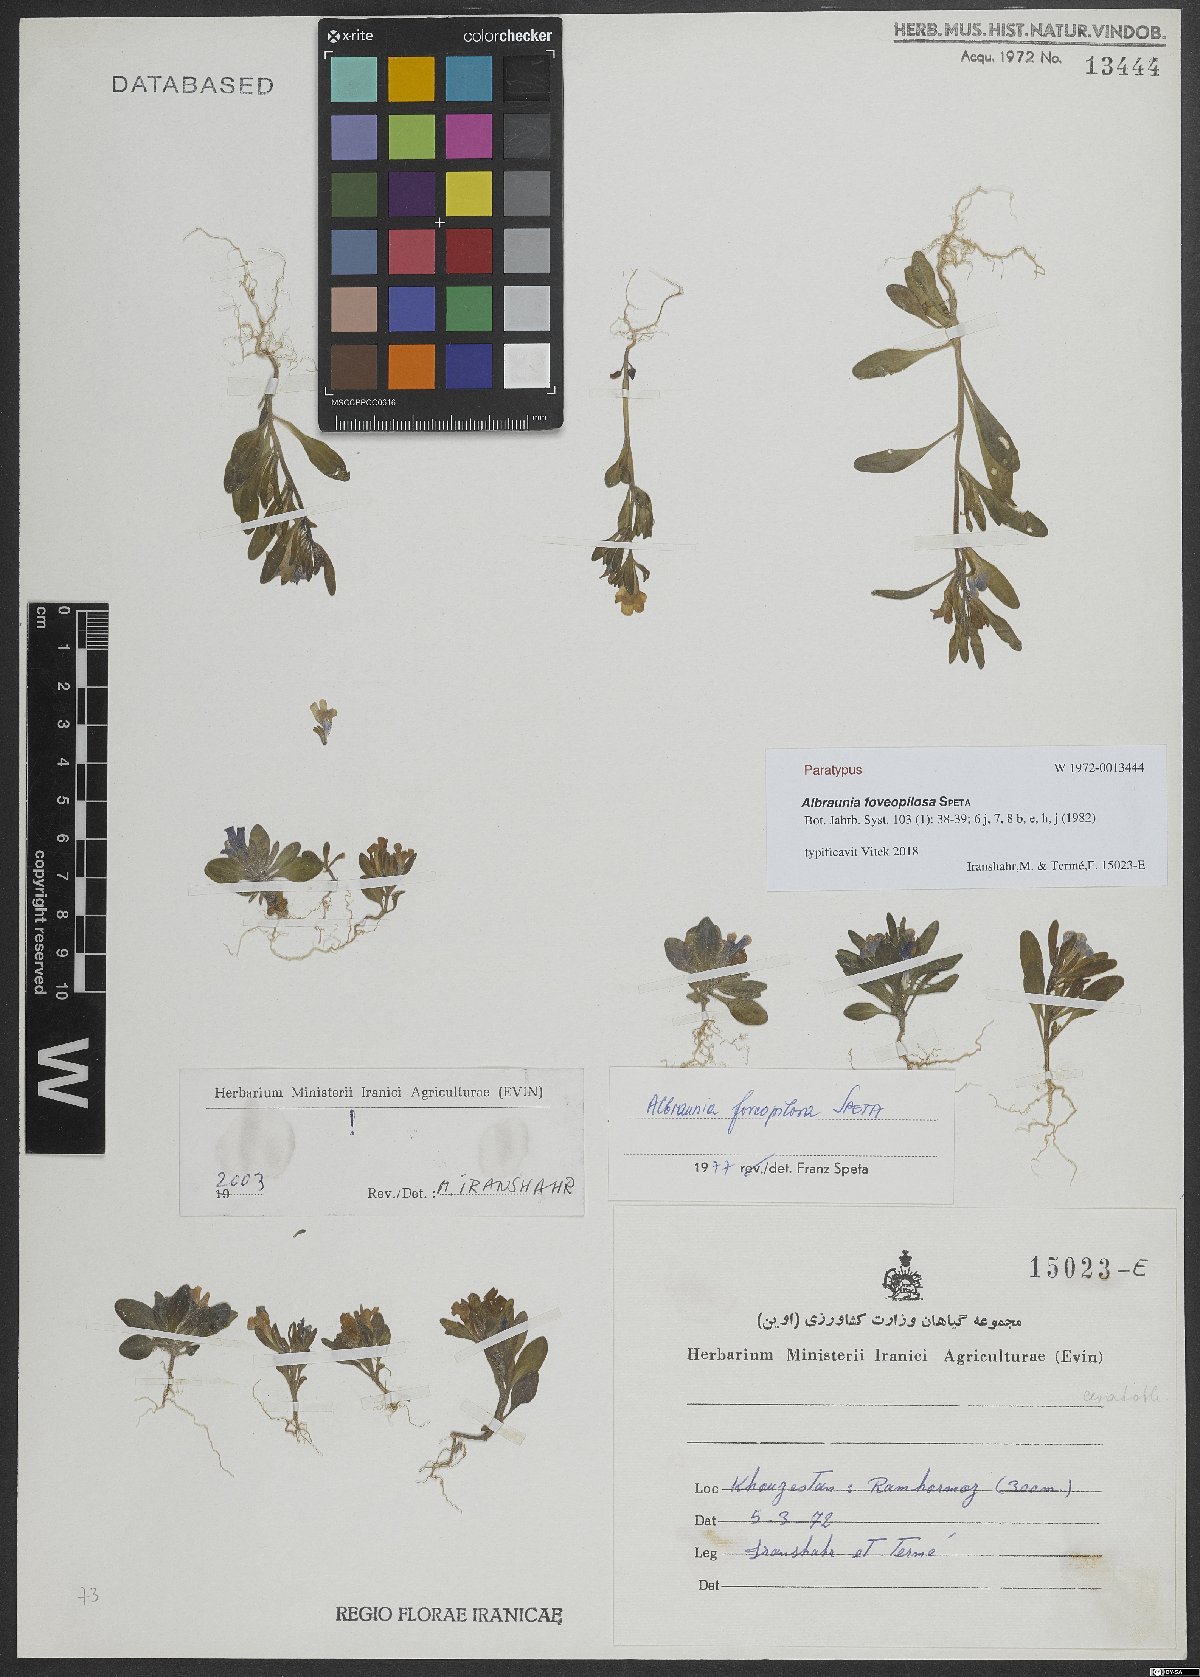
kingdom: Plantae
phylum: Tracheophyta
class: Magnoliopsida
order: Lamiales
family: Plantaginaceae
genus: Albraunia
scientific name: Albraunia foveopilosa
